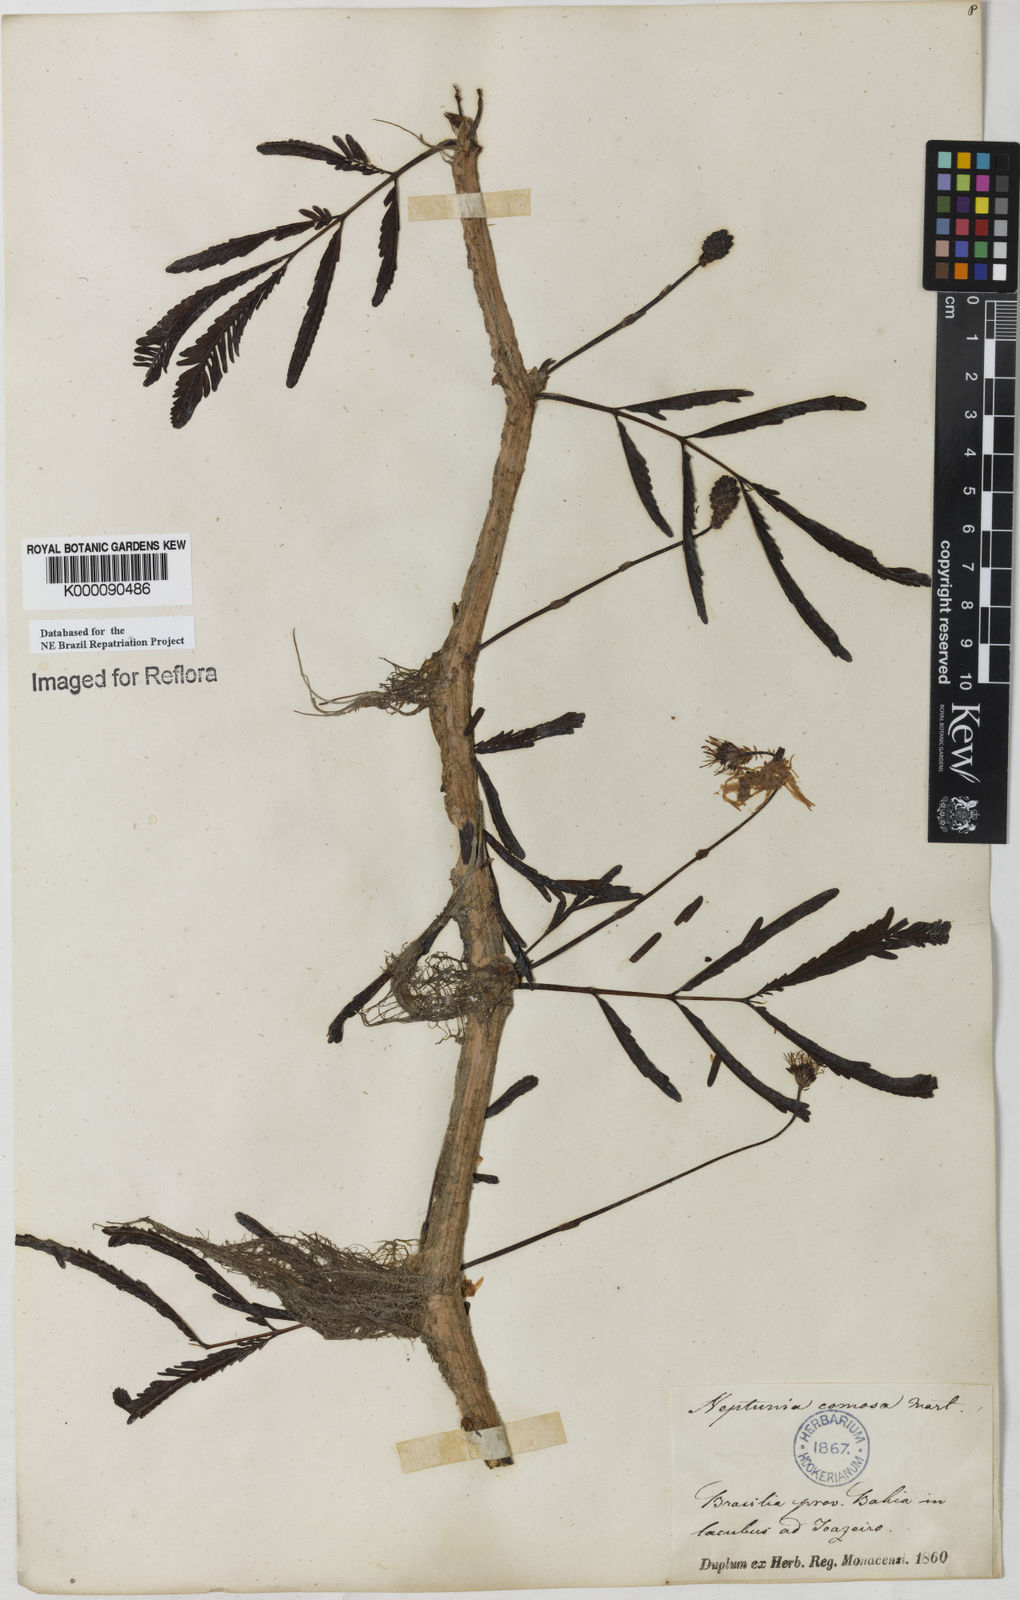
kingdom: Plantae
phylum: Tracheophyta
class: Magnoliopsida
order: Fabales
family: Fabaceae
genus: Neptunia
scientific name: Neptunia prostrata
